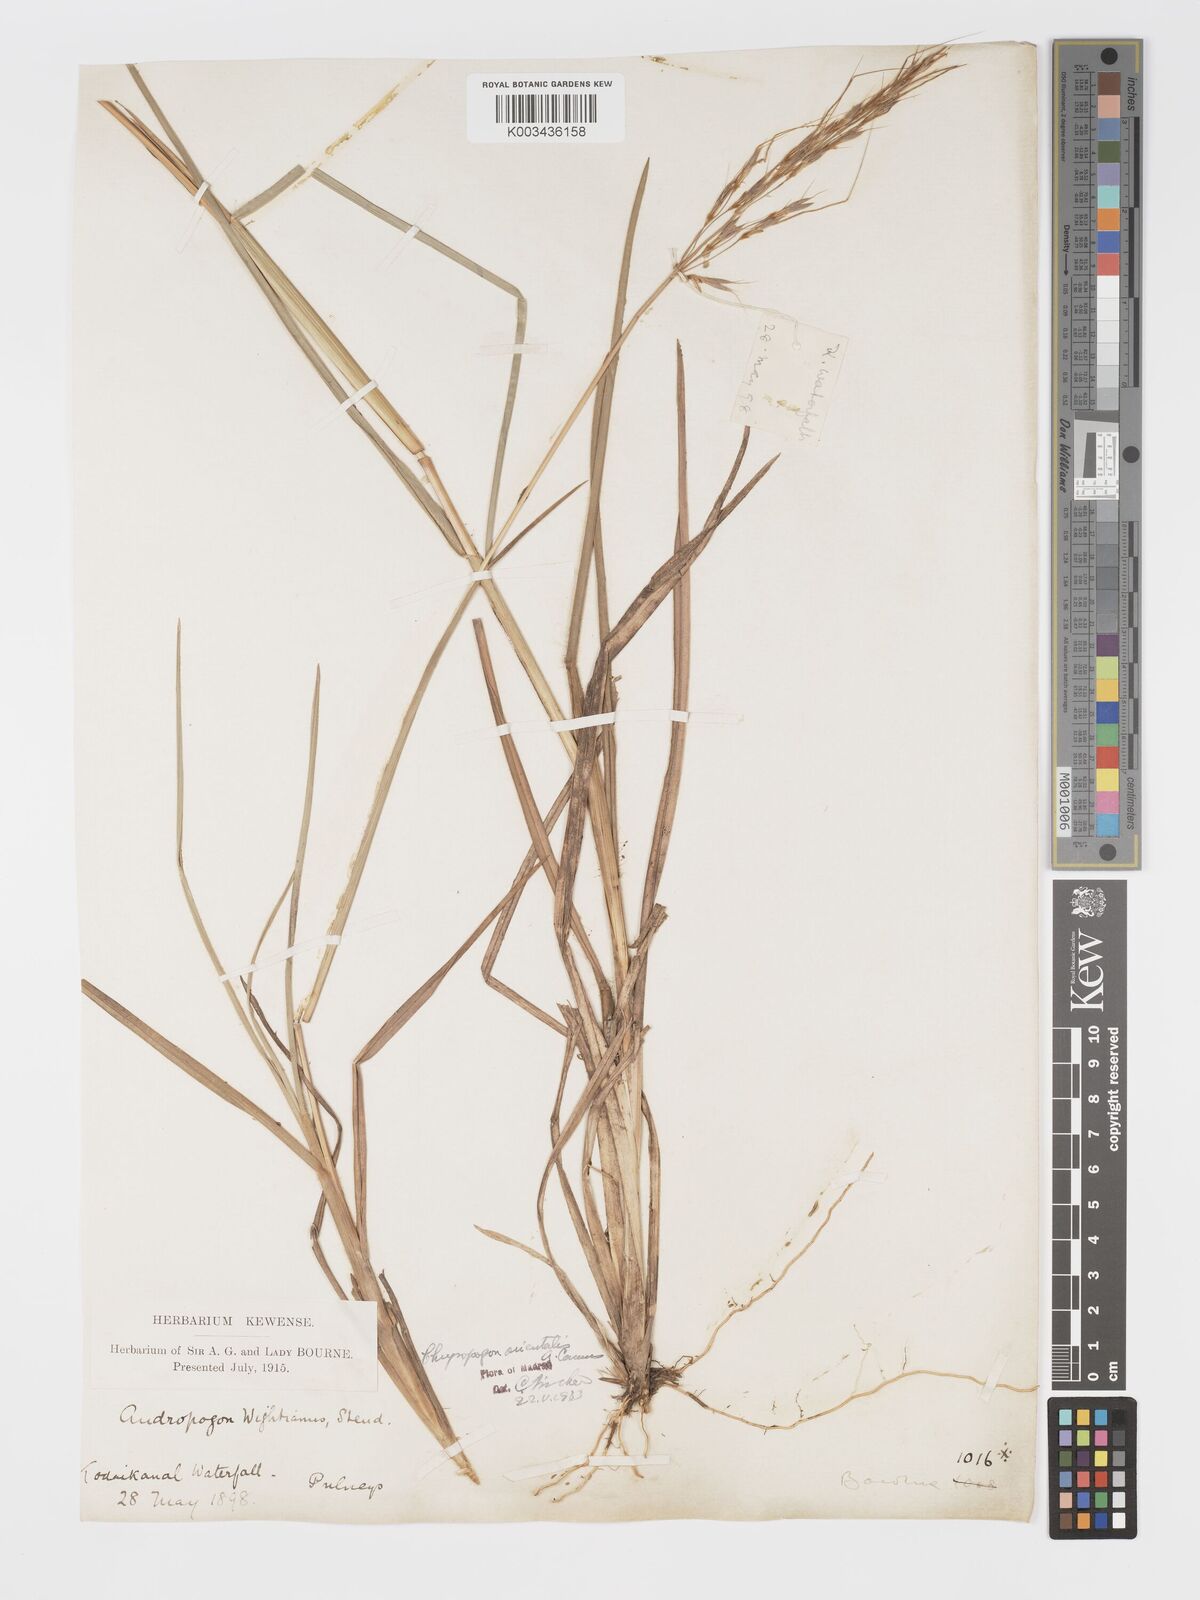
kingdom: Plantae
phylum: Tracheophyta
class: Liliopsida
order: Poales
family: Poaceae
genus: Chrysopogon
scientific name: Chrysopogon orientalis
